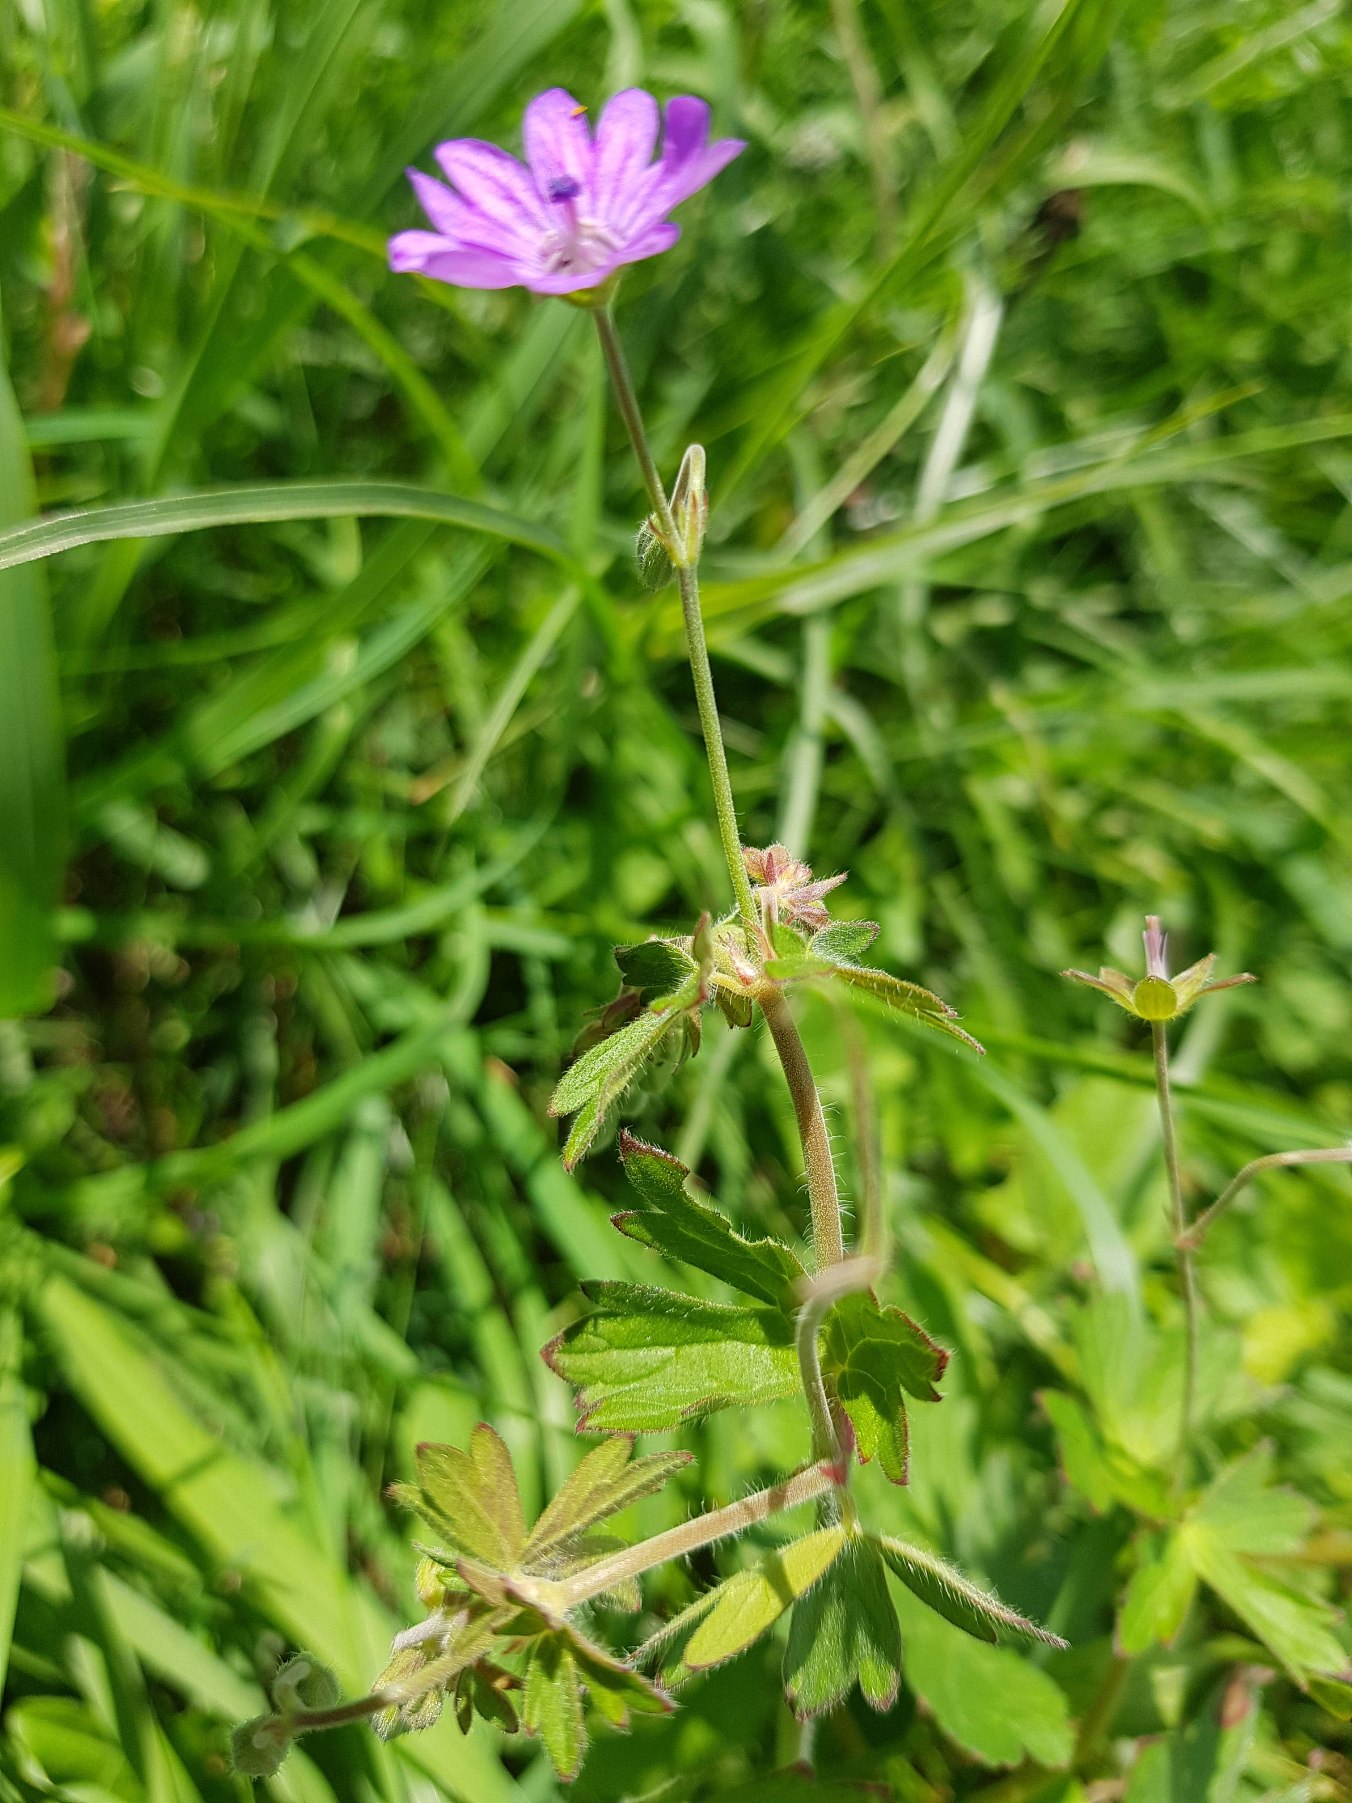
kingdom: Plantae
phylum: Tracheophyta
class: Magnoliopsida
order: Geraniales
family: Geraniaceae
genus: Geranium
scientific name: Geranium pyrenaicum
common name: Pyrenæisk storkenæb
